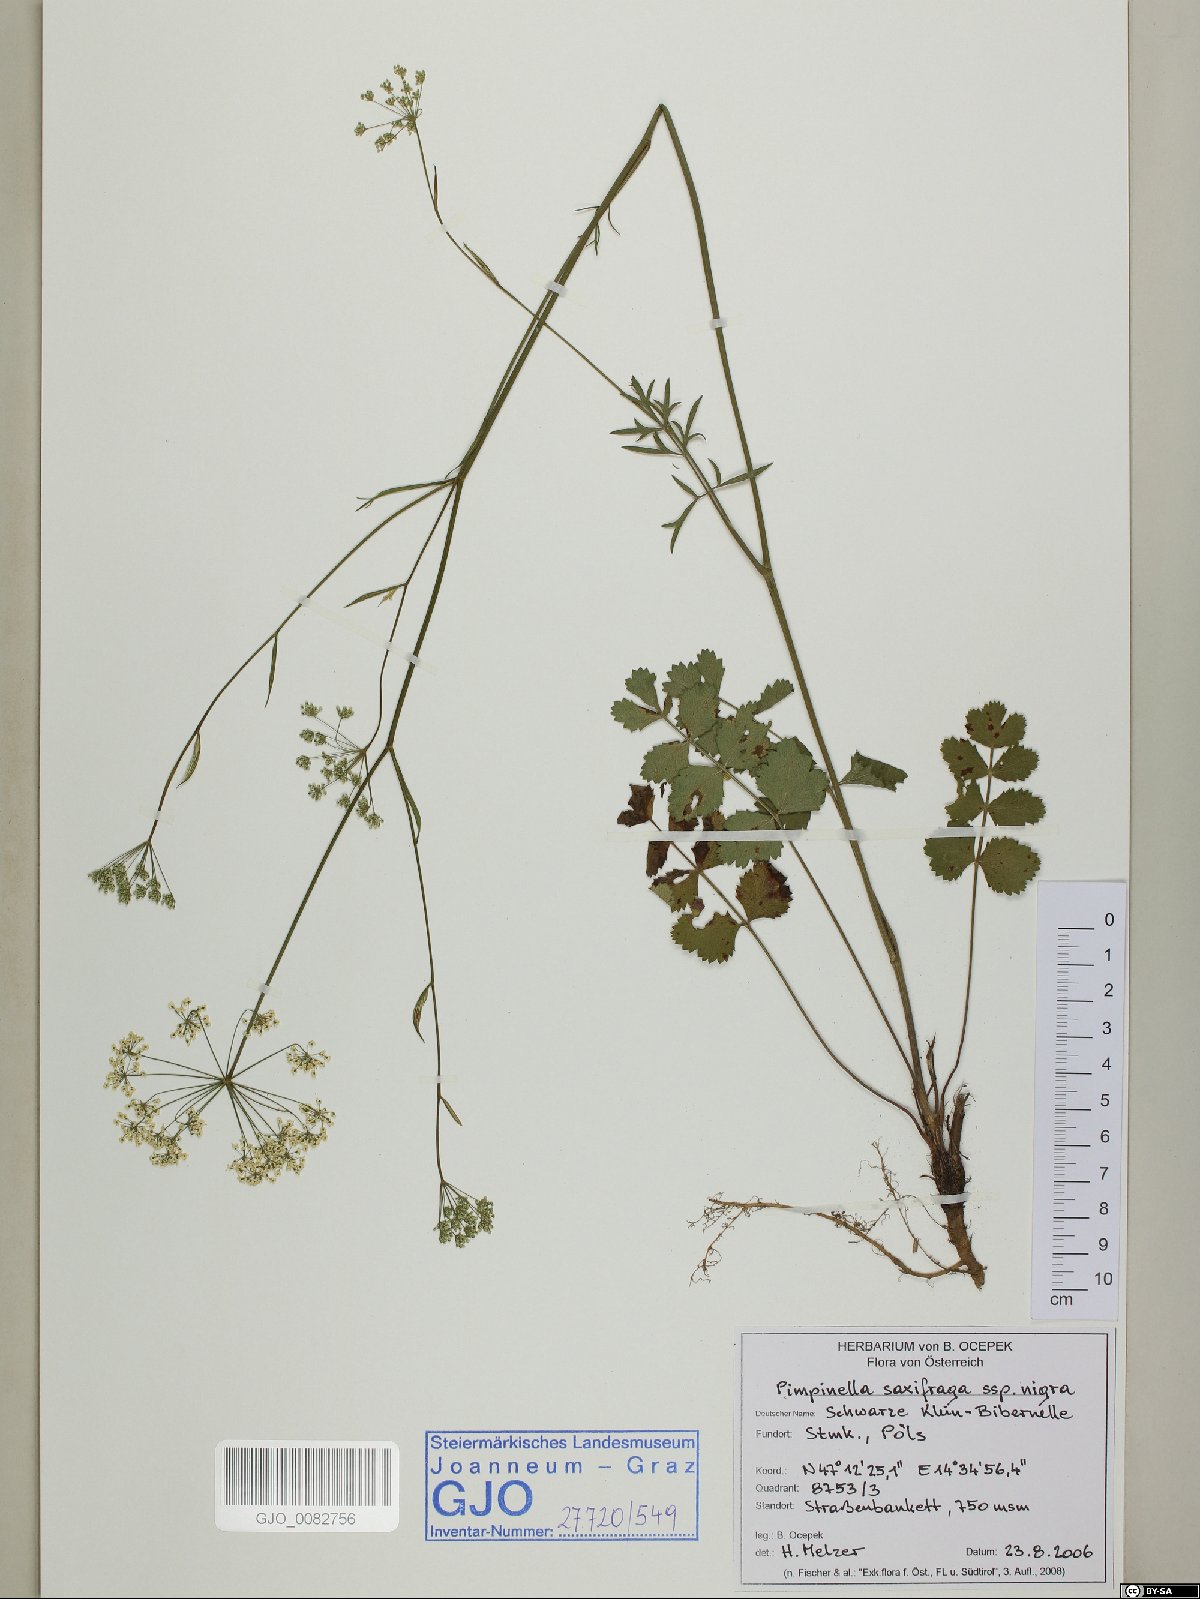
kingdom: Plantae
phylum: Tracheophyta
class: Magnoliopsida
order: Apiales
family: Apiaceae
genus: Pimpinella
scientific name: Pimpinella nigra
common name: Black pimpinella
